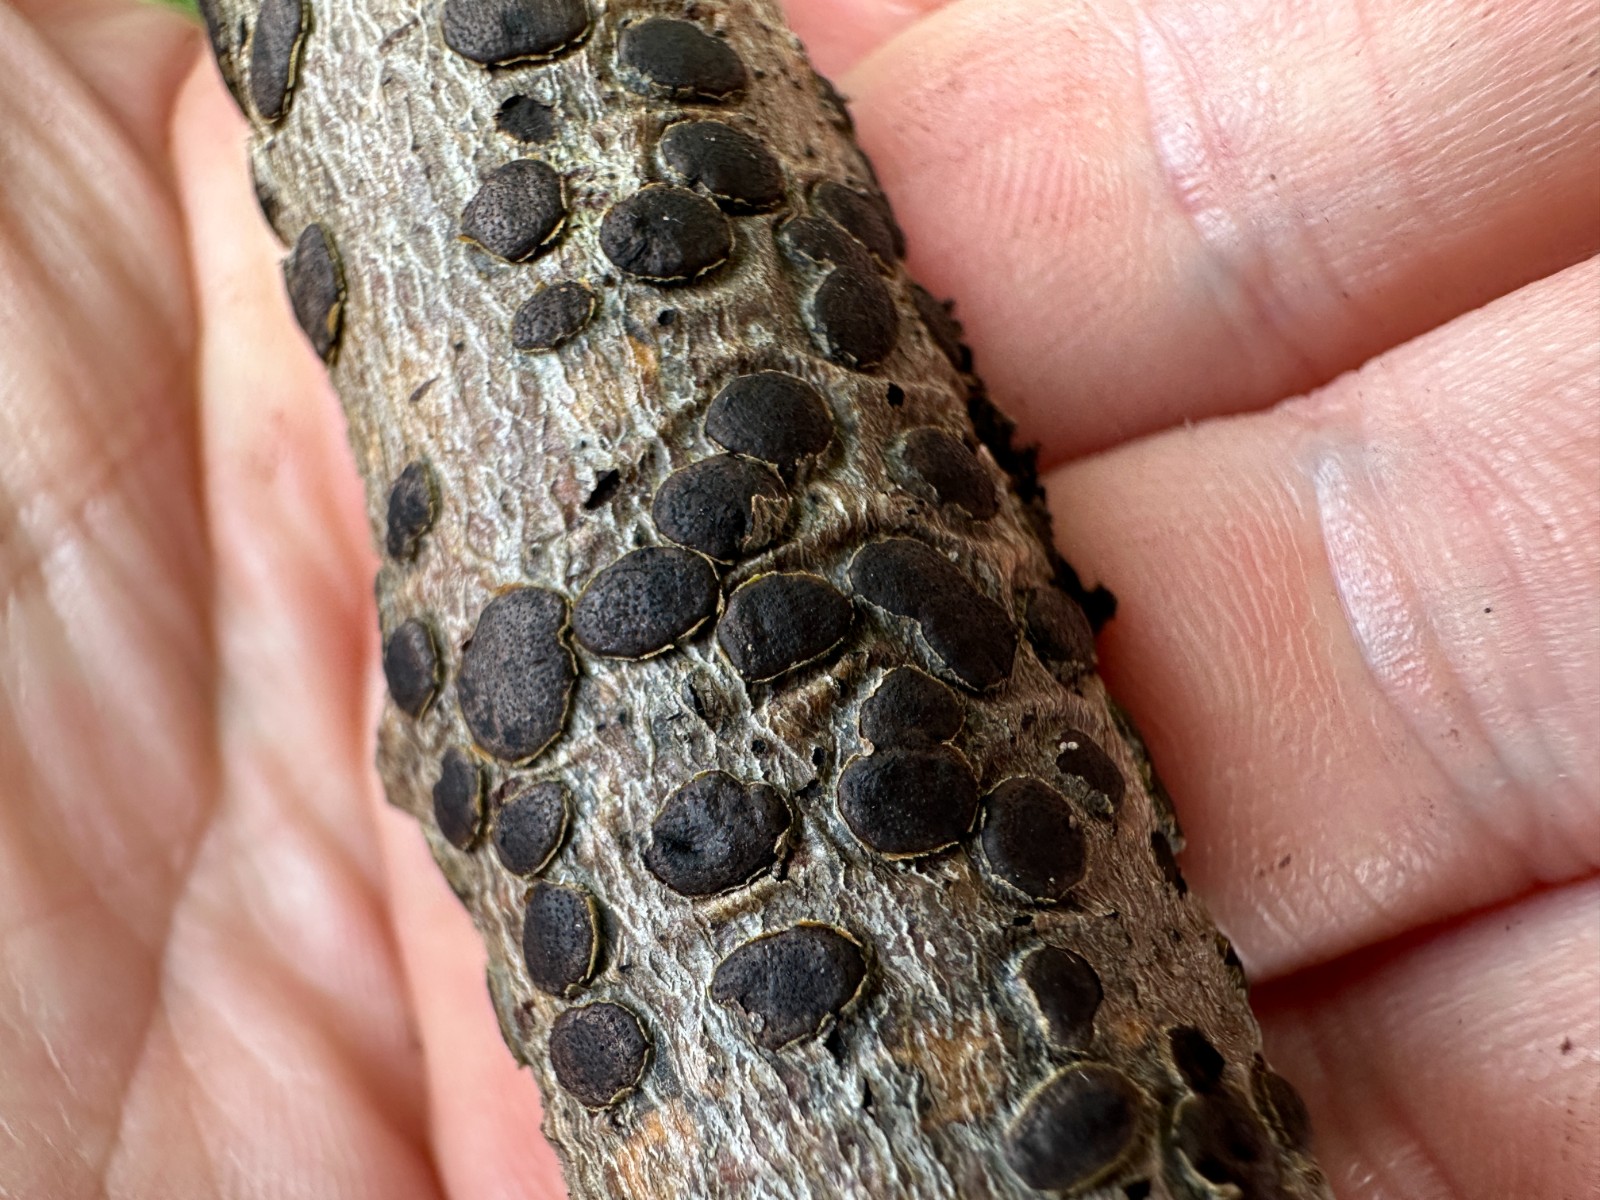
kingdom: Fungi
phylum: Ascomycota
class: Sordariomycetes
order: Xylariales
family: Diatrypaceae
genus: Diatrype
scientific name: Diatrype disciformis
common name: kant-kulskorpe
